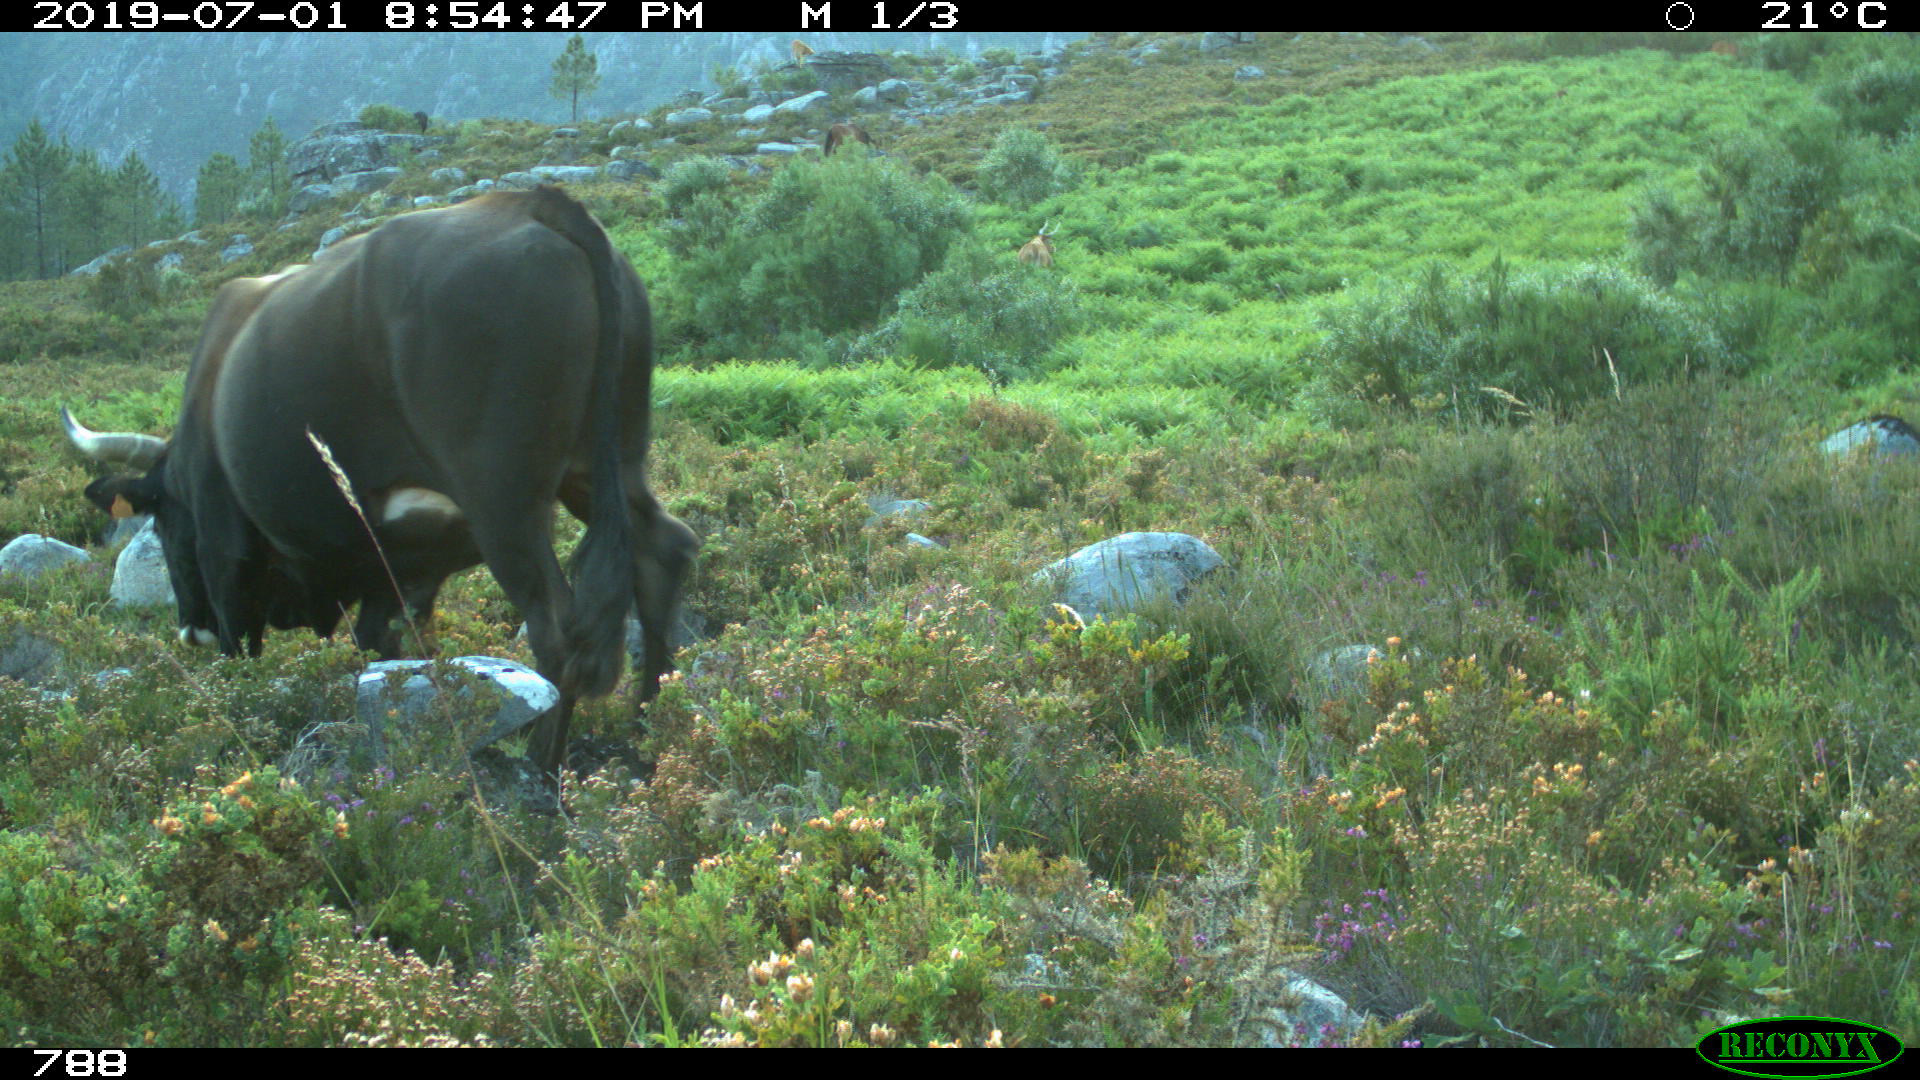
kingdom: Animalia
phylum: Chordata
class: Mammalia
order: Artiodactyla
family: Bovidae
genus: Bos
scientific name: Bos taurus
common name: Domesticated cattle
